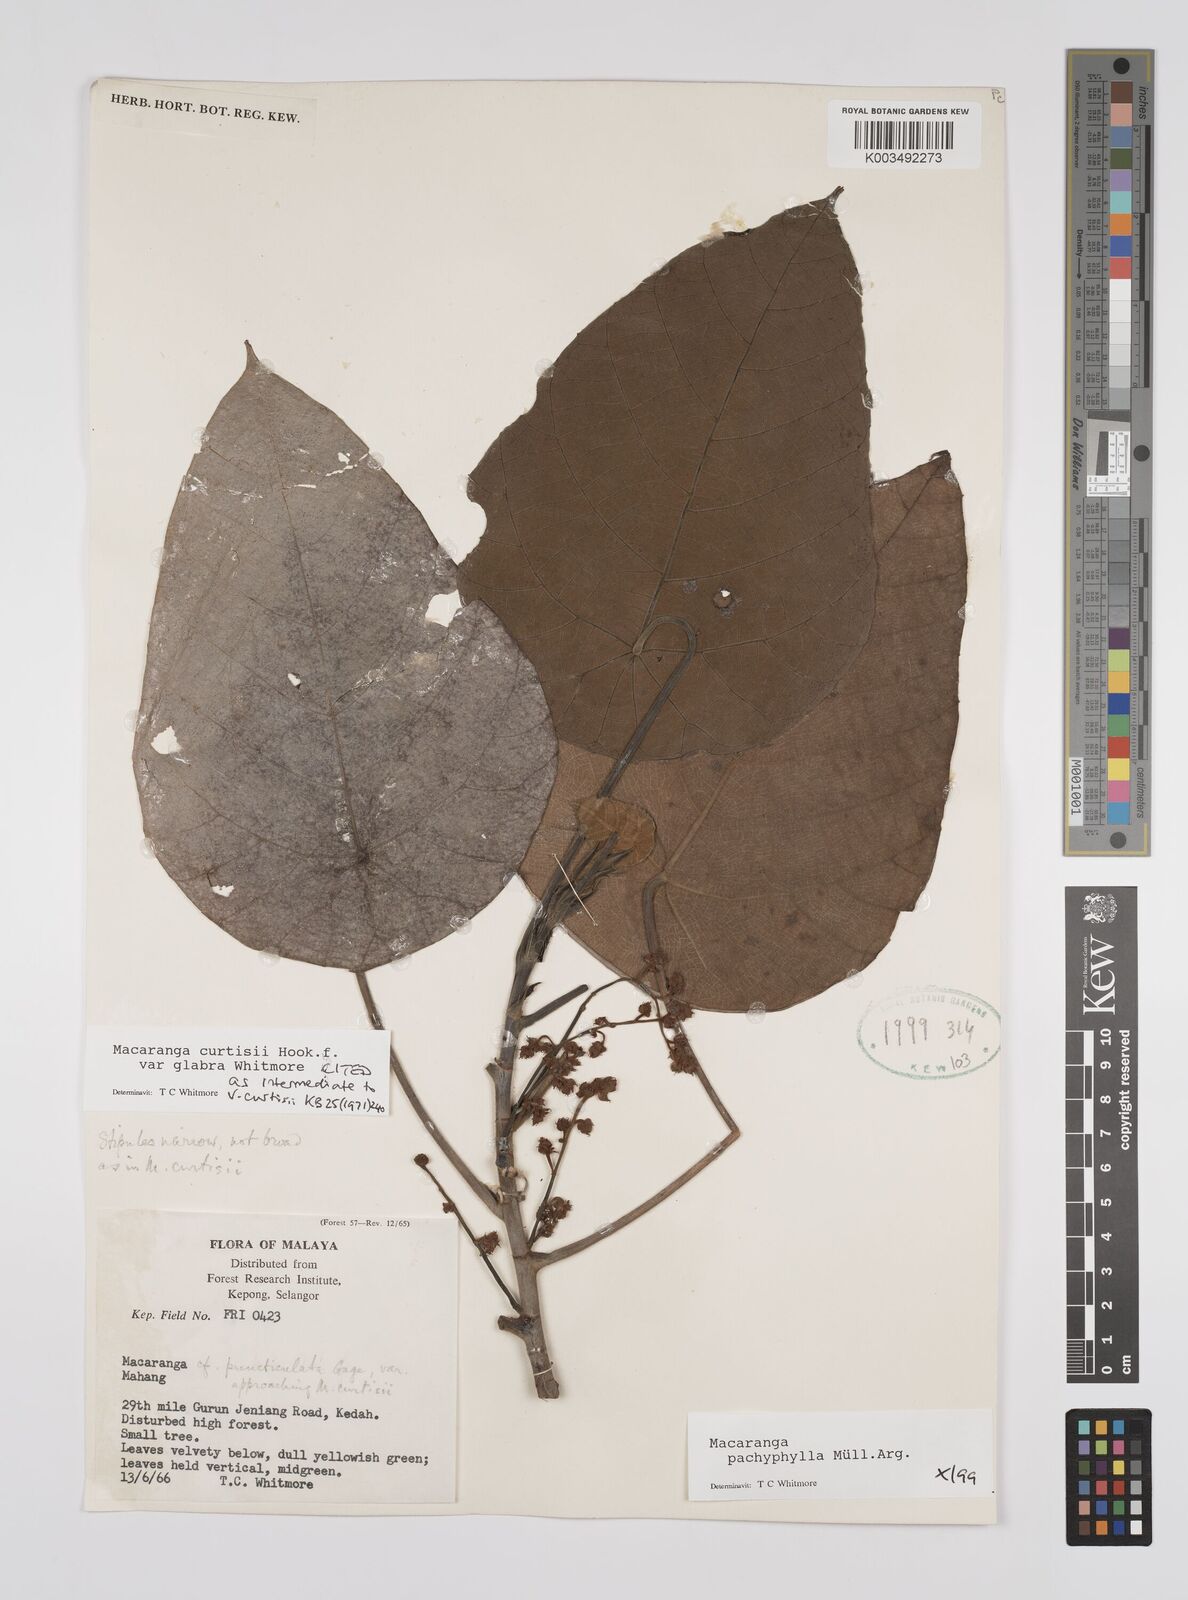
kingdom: Plantae
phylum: Tracheophyta
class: Magnoliopsida
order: Malpighiales
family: Euphorbiaceae
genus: Macaranga
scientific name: Macaranga pachyphylla
